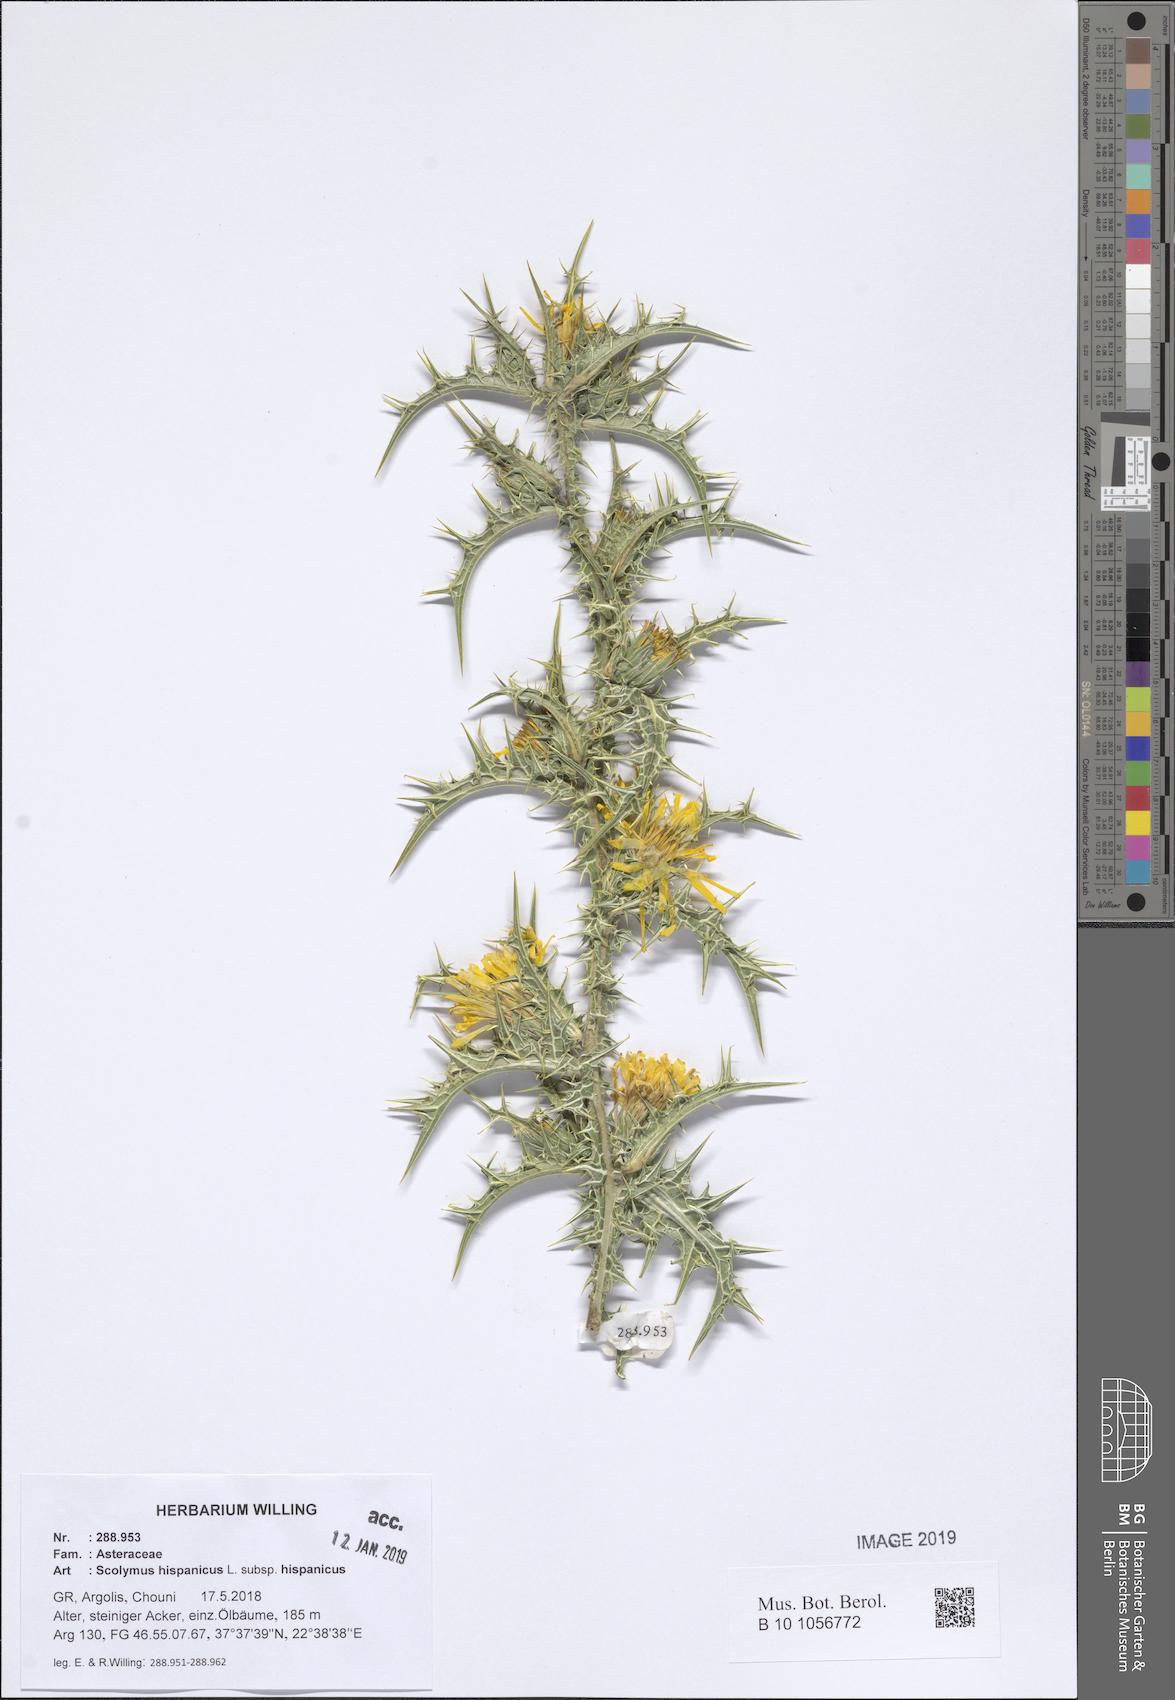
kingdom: Plantae
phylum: Tracheophyta
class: Magnoliopsida
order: Asterales
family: Asteraceae
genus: Scolymus
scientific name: Scolymus hispanicus
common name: Golden thistle
